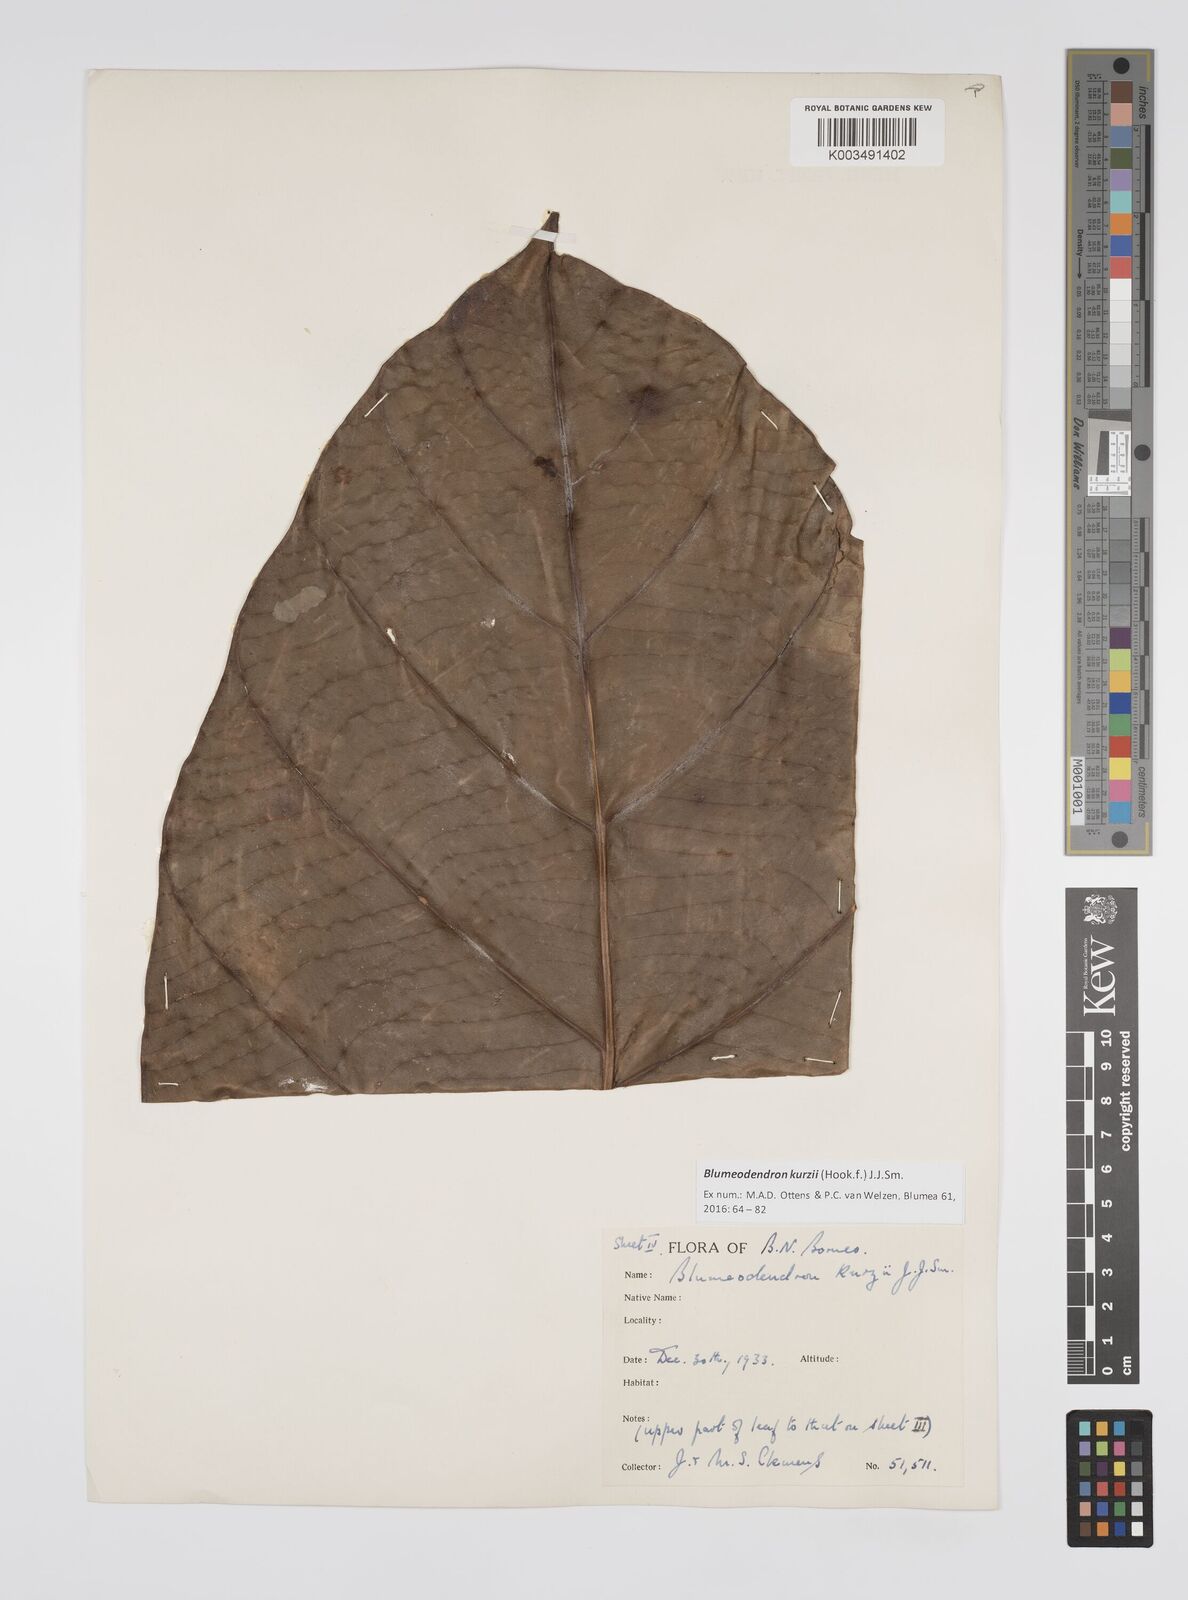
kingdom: Plantae
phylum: Tracheophyta
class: Magnoliopsida
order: Malpighiales
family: Euphorbiaceae
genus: Blumeodendron
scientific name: Blumeodendron kurzii
